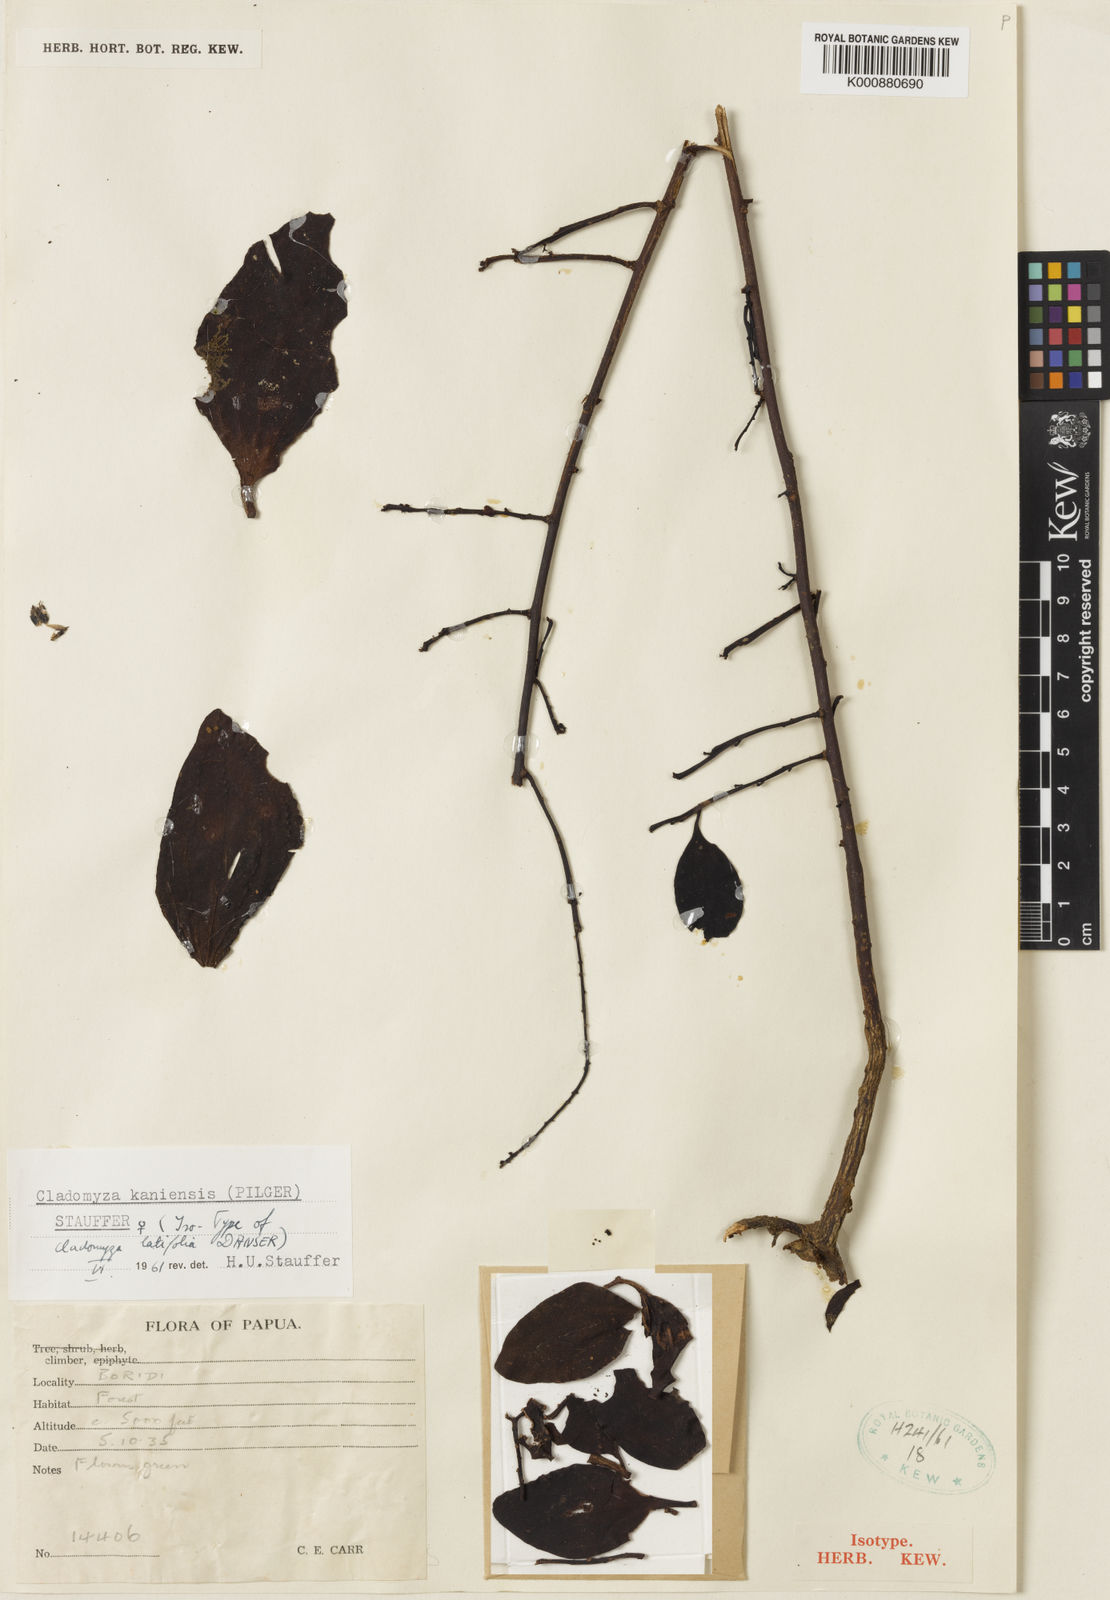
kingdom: Plantae
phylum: Tracheophyta
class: Magnoliopsida
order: Santalales
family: Amphorogynaceae
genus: Cladomyza
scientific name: Cladomyza kaniensis
